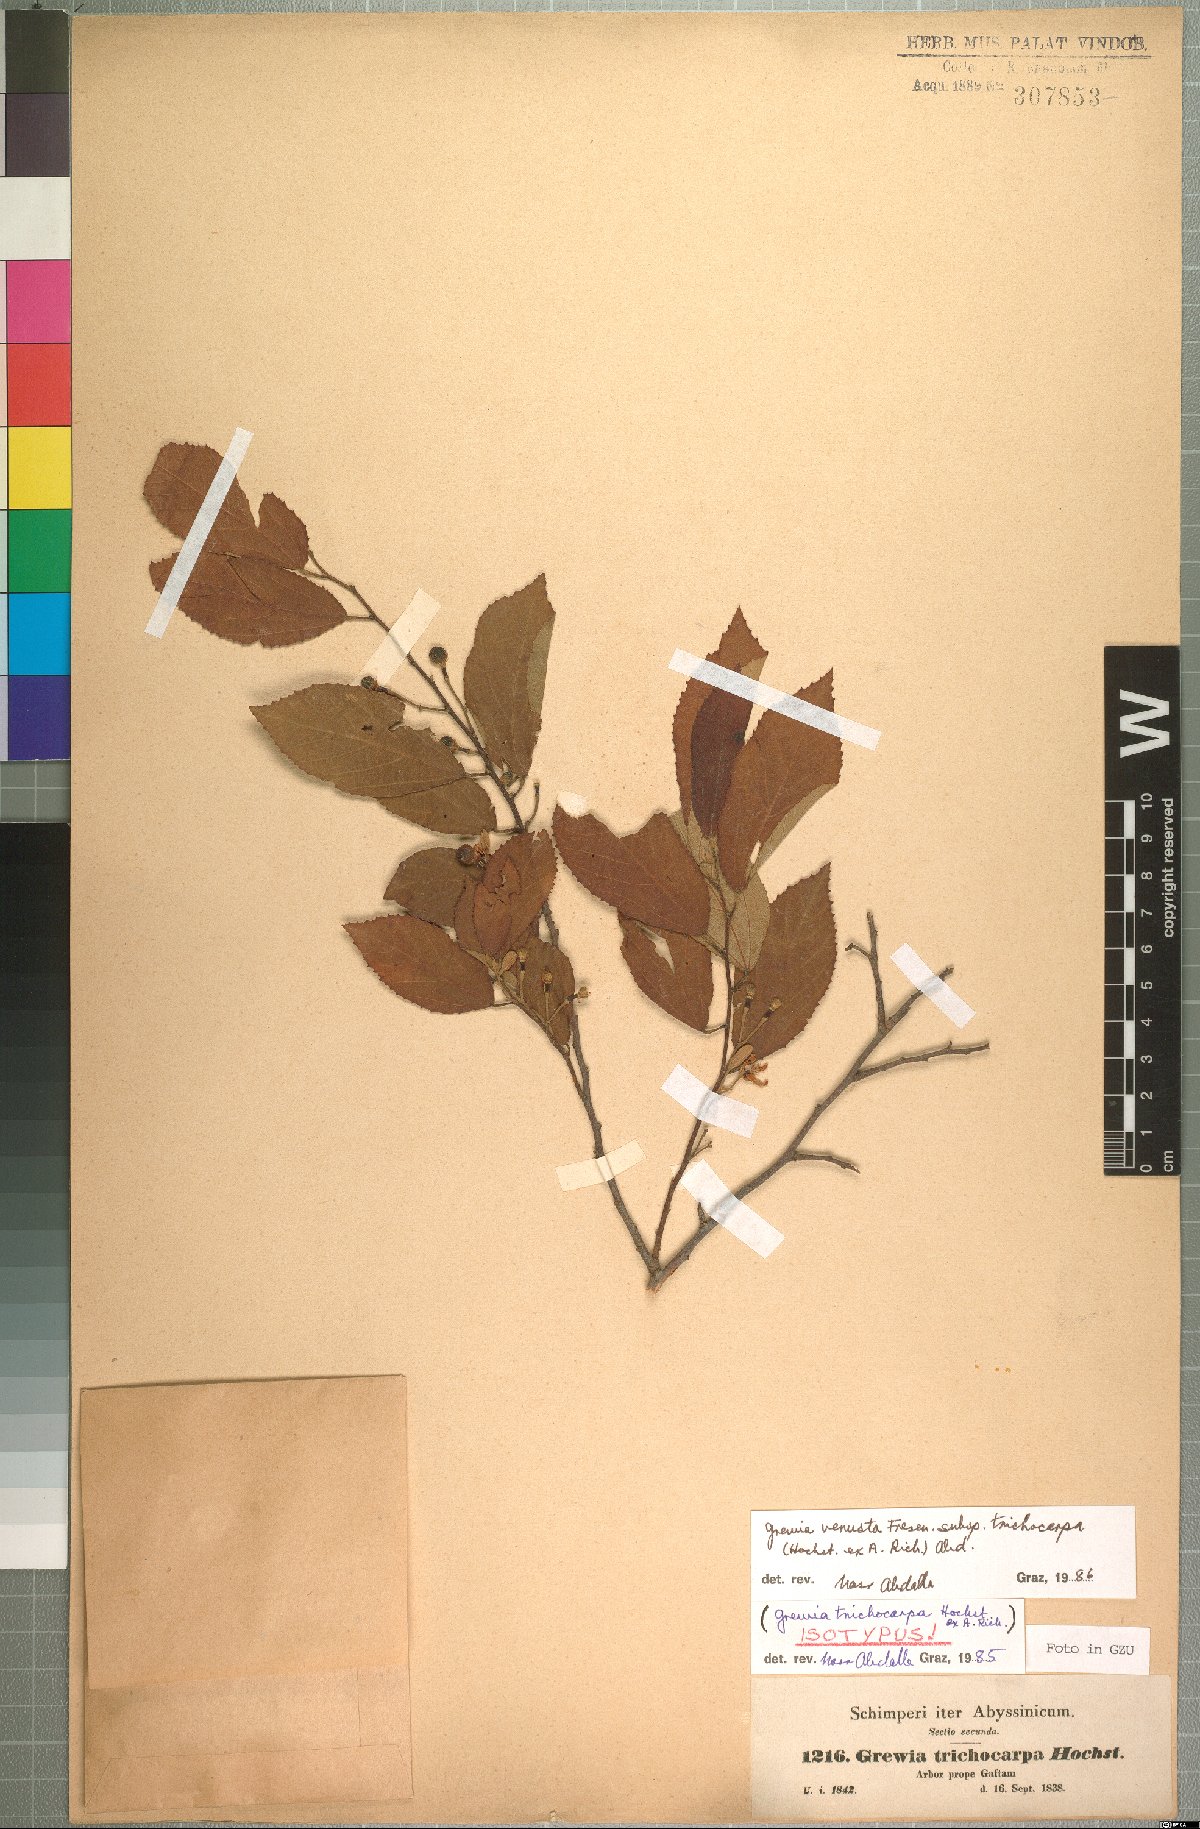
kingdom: Plantae
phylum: Tracheophyta
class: Magnoliopsida
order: Malvales
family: Malvaceae
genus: Grewia
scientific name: Grewia trichocarpa
